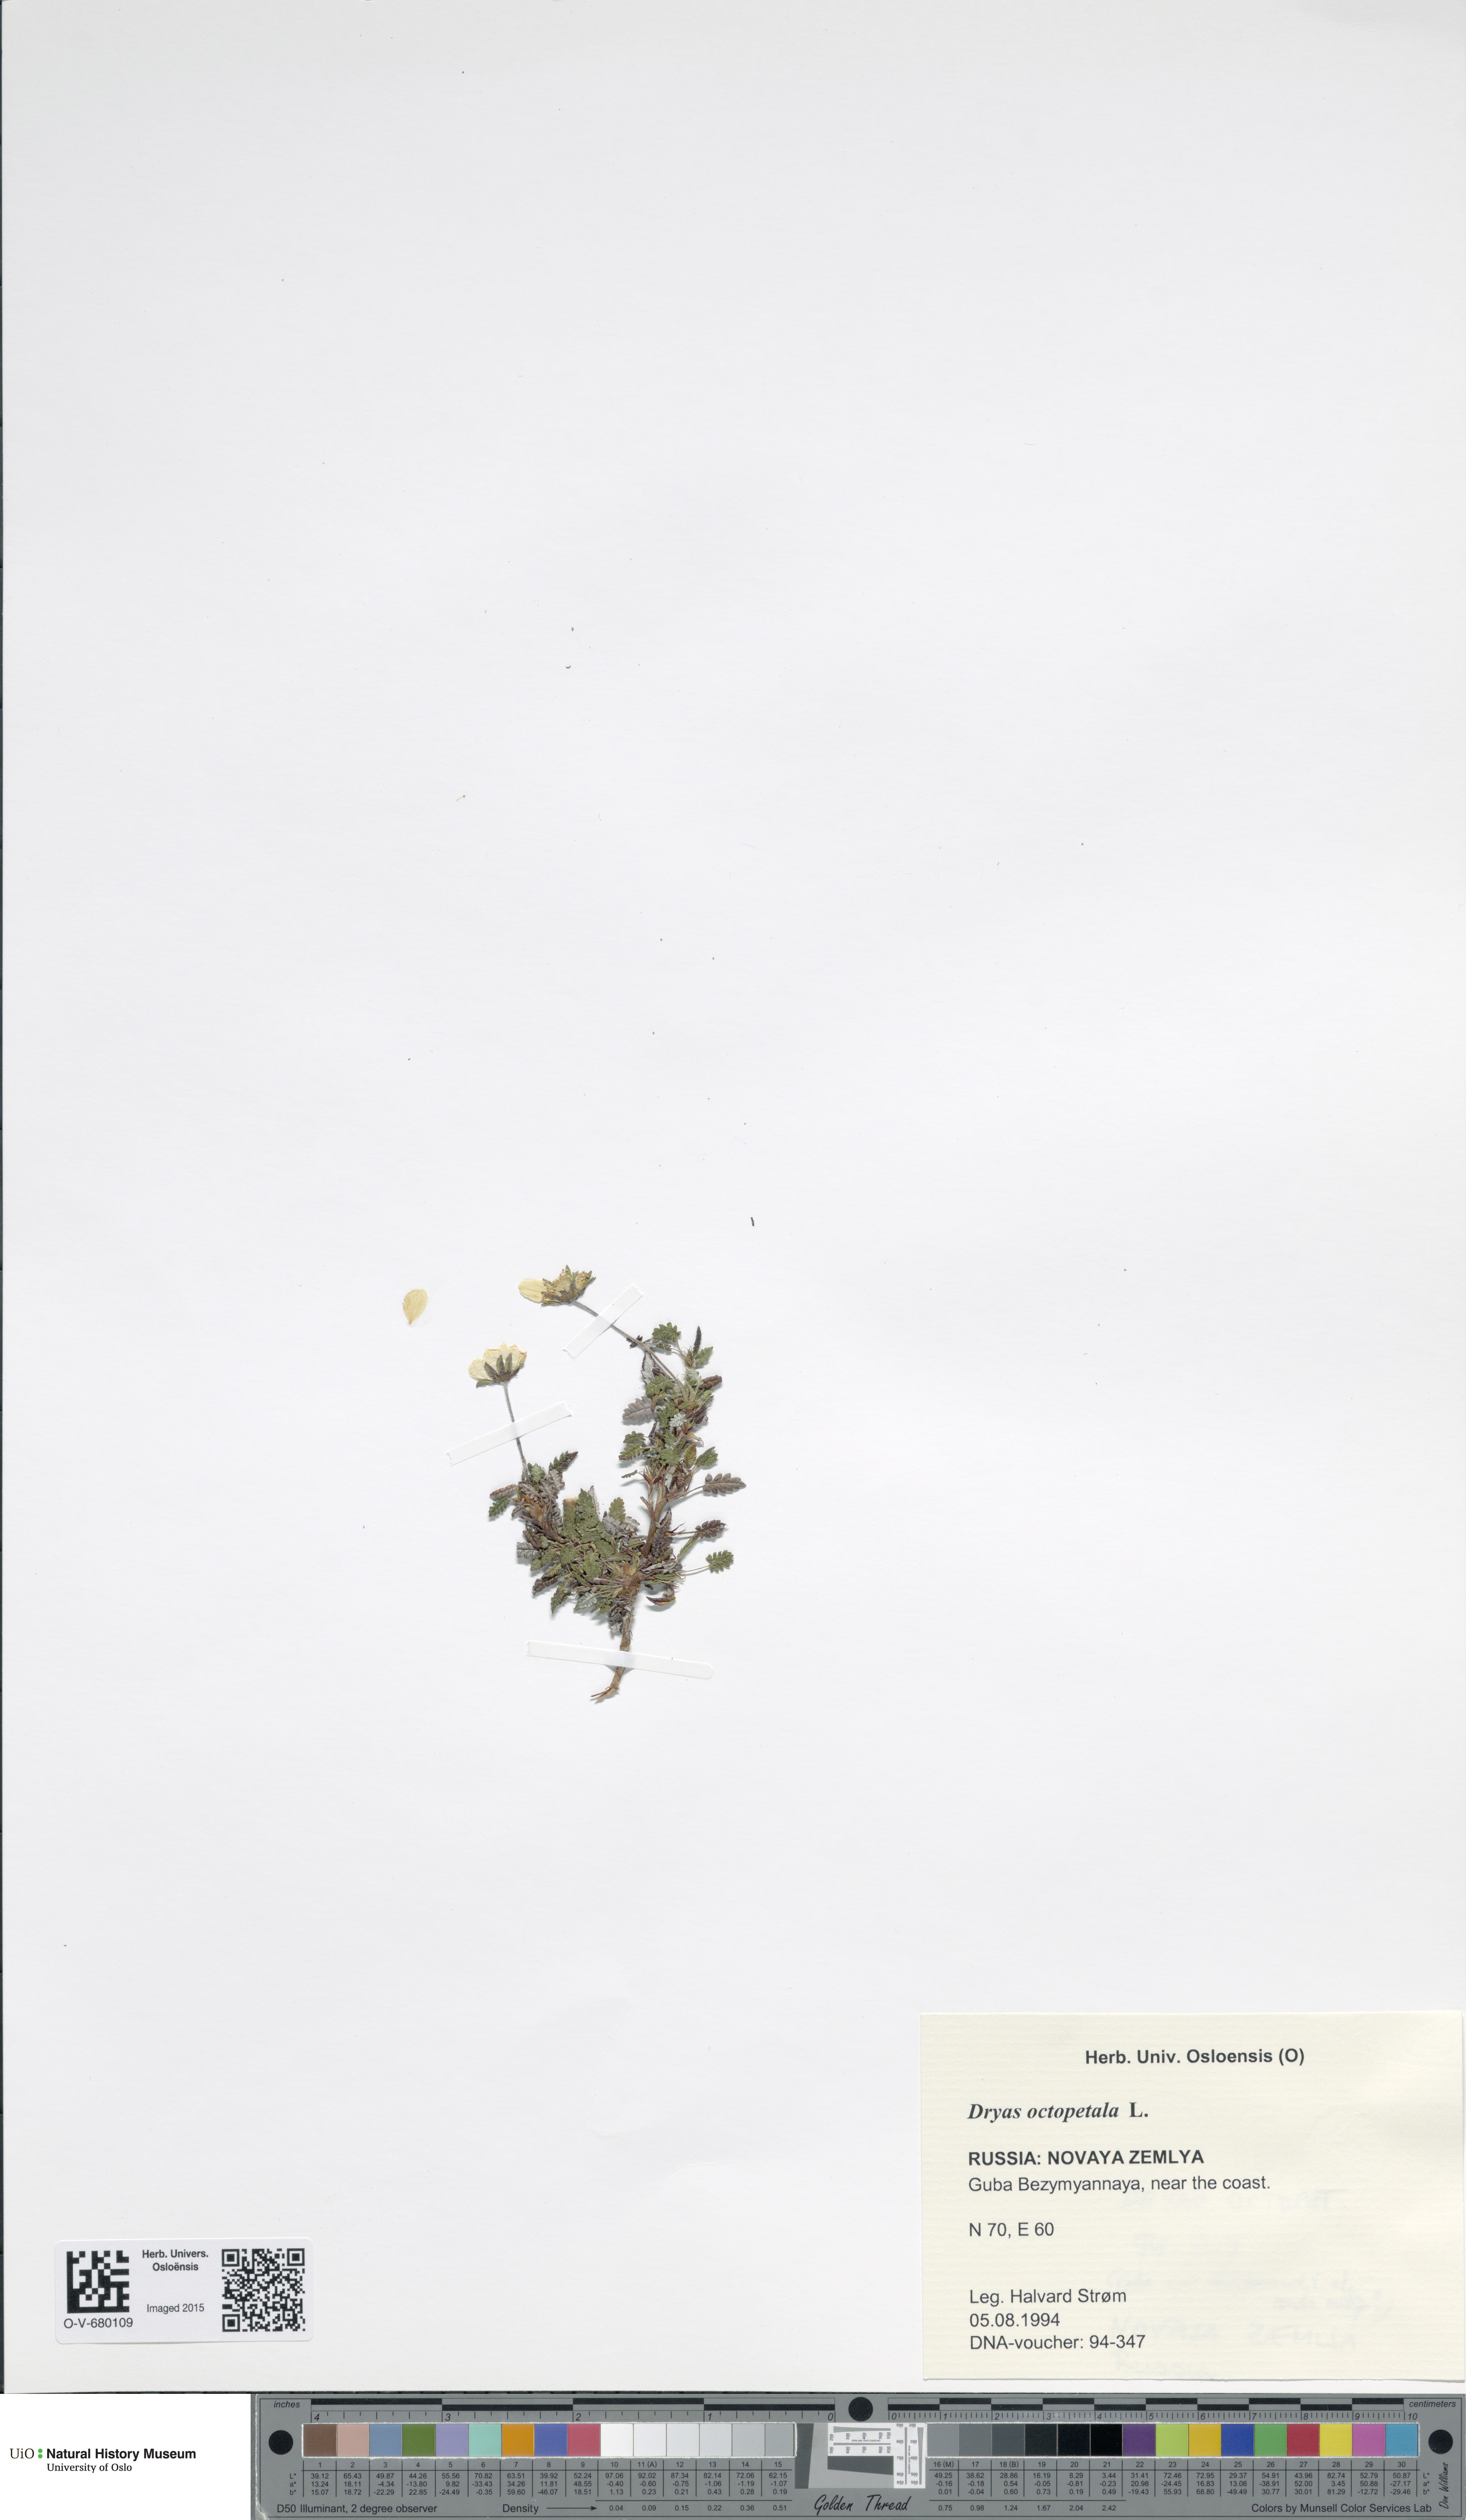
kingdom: Plantae
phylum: Tracheophyta
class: Magnoliopsida
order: Rosales
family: Rosaceae
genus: Dryas
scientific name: Dryas octopetala
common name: Eight-petal mountain-avens
